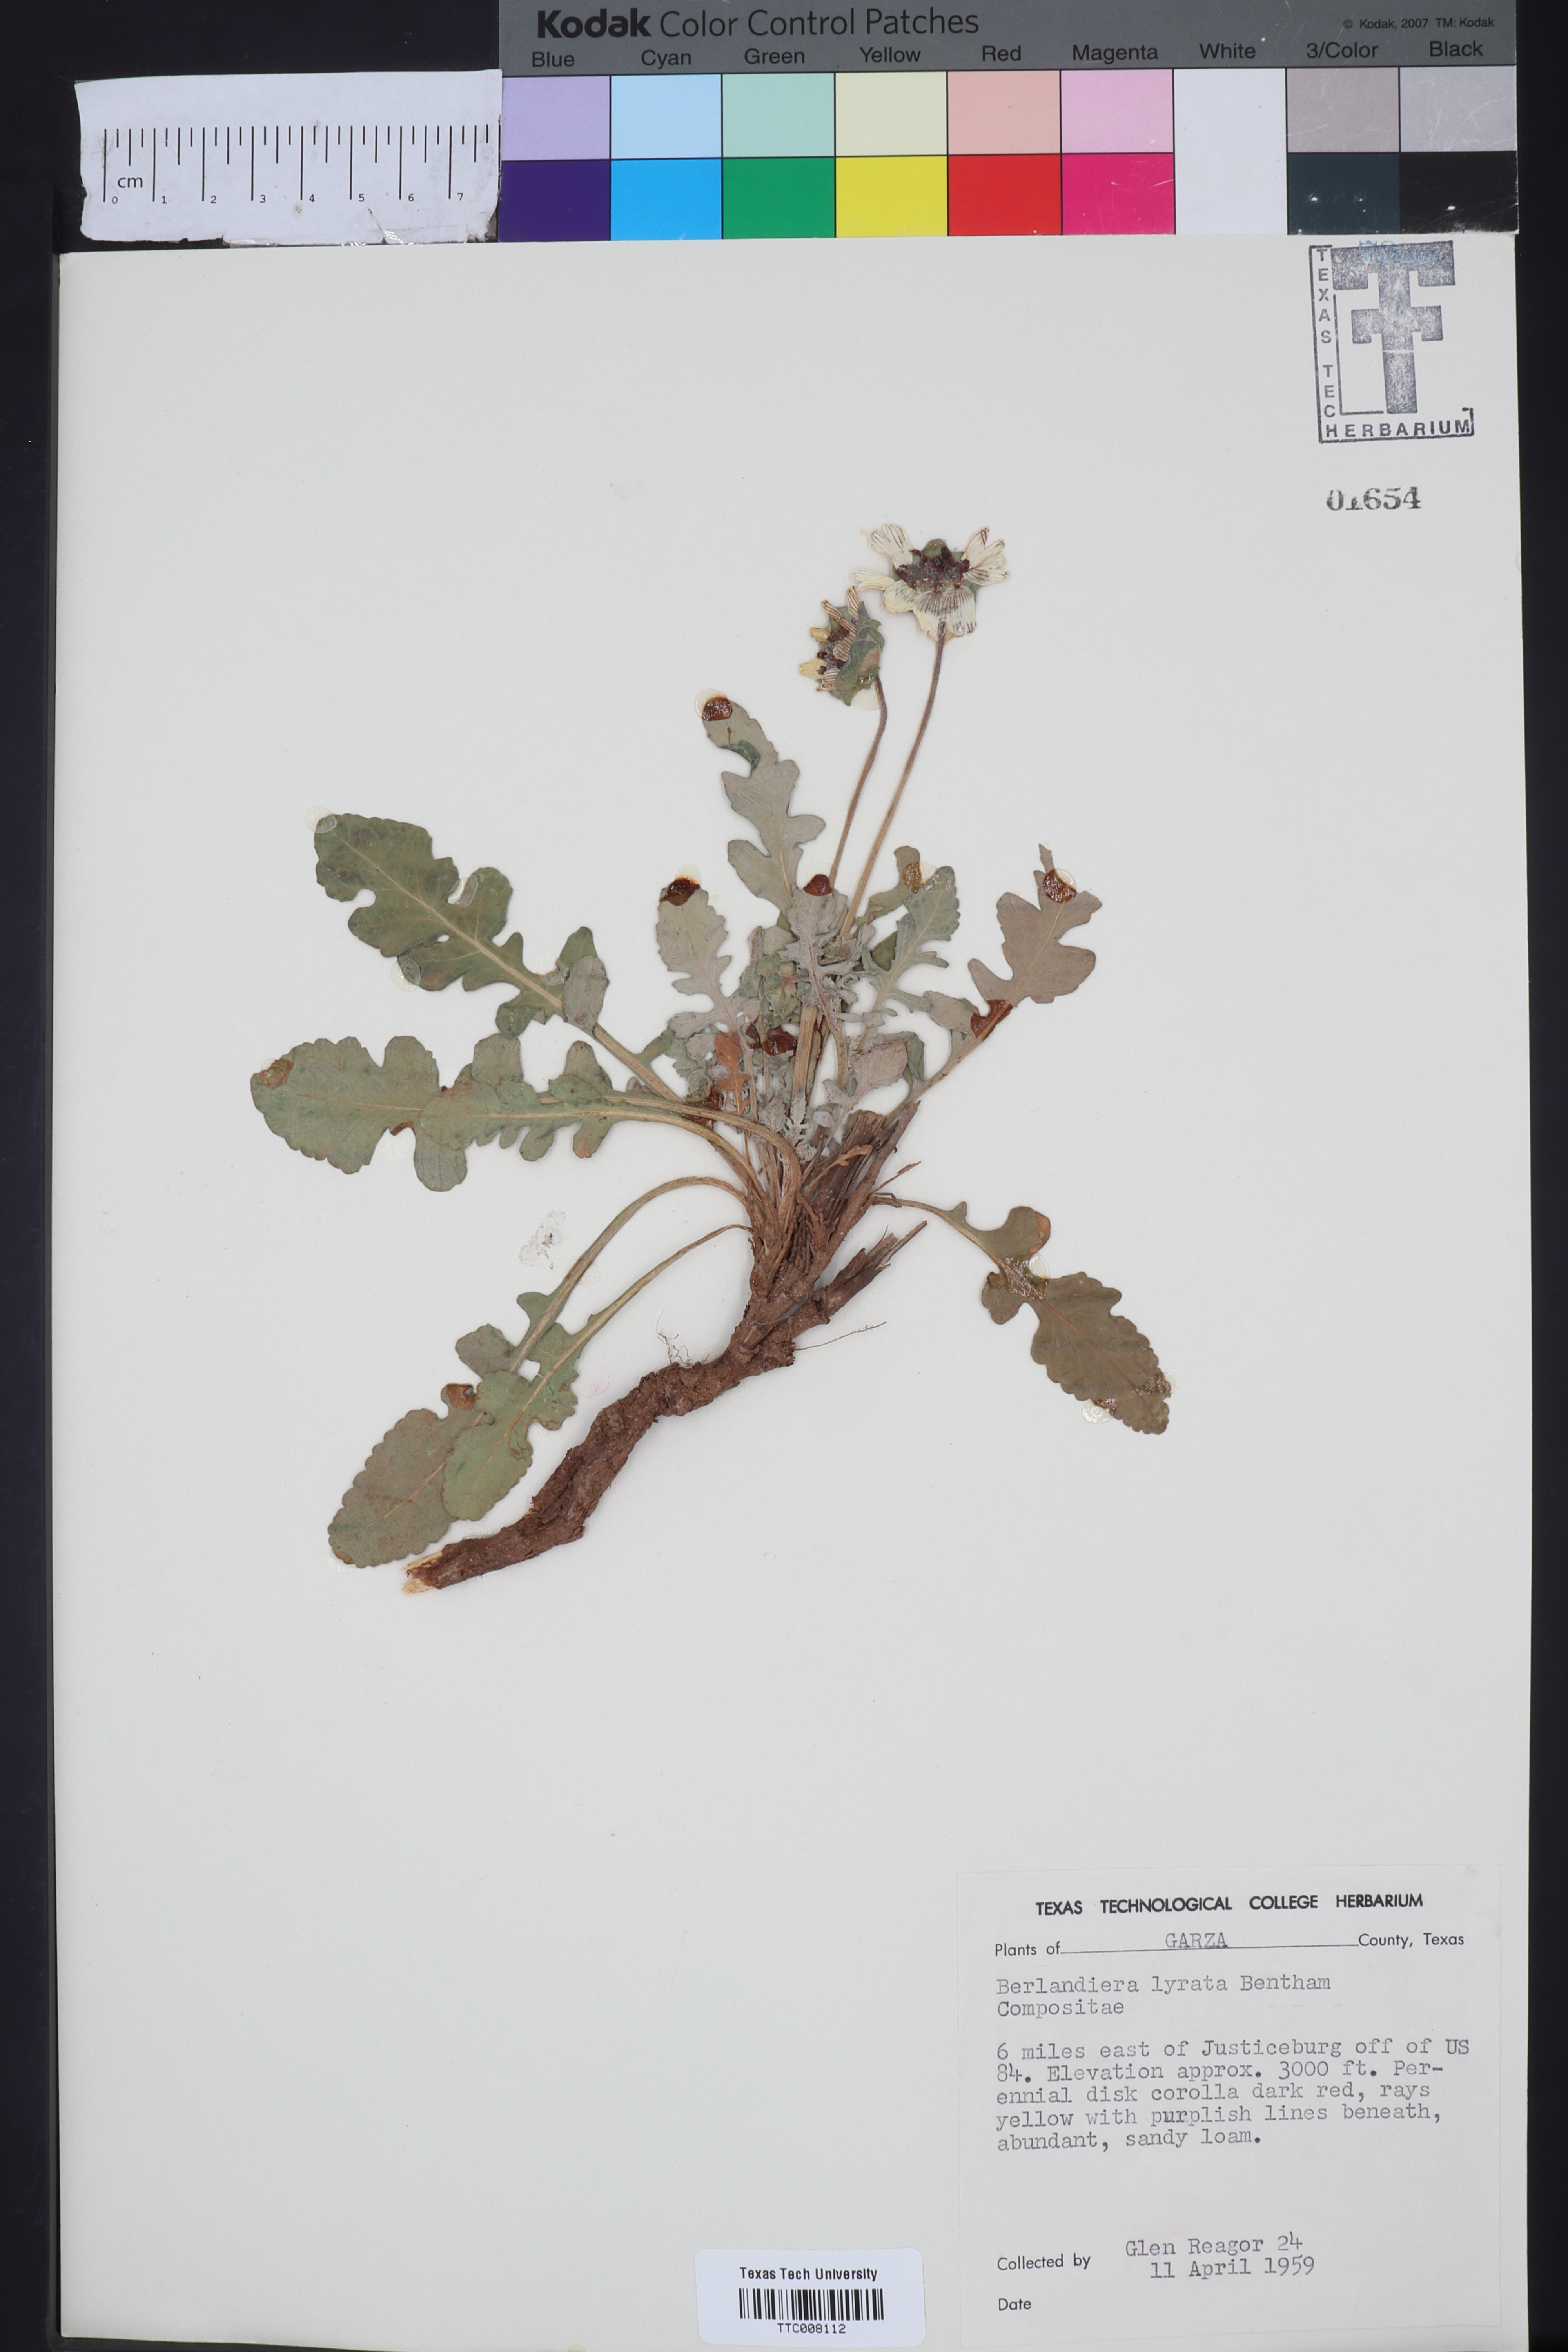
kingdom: Plantae
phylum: Tracheophyta
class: Magnoliopsida
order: Asterales
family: Asteraceae
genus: Berlandiera
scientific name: Berlandiera lyrata
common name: Chocolate-flower
